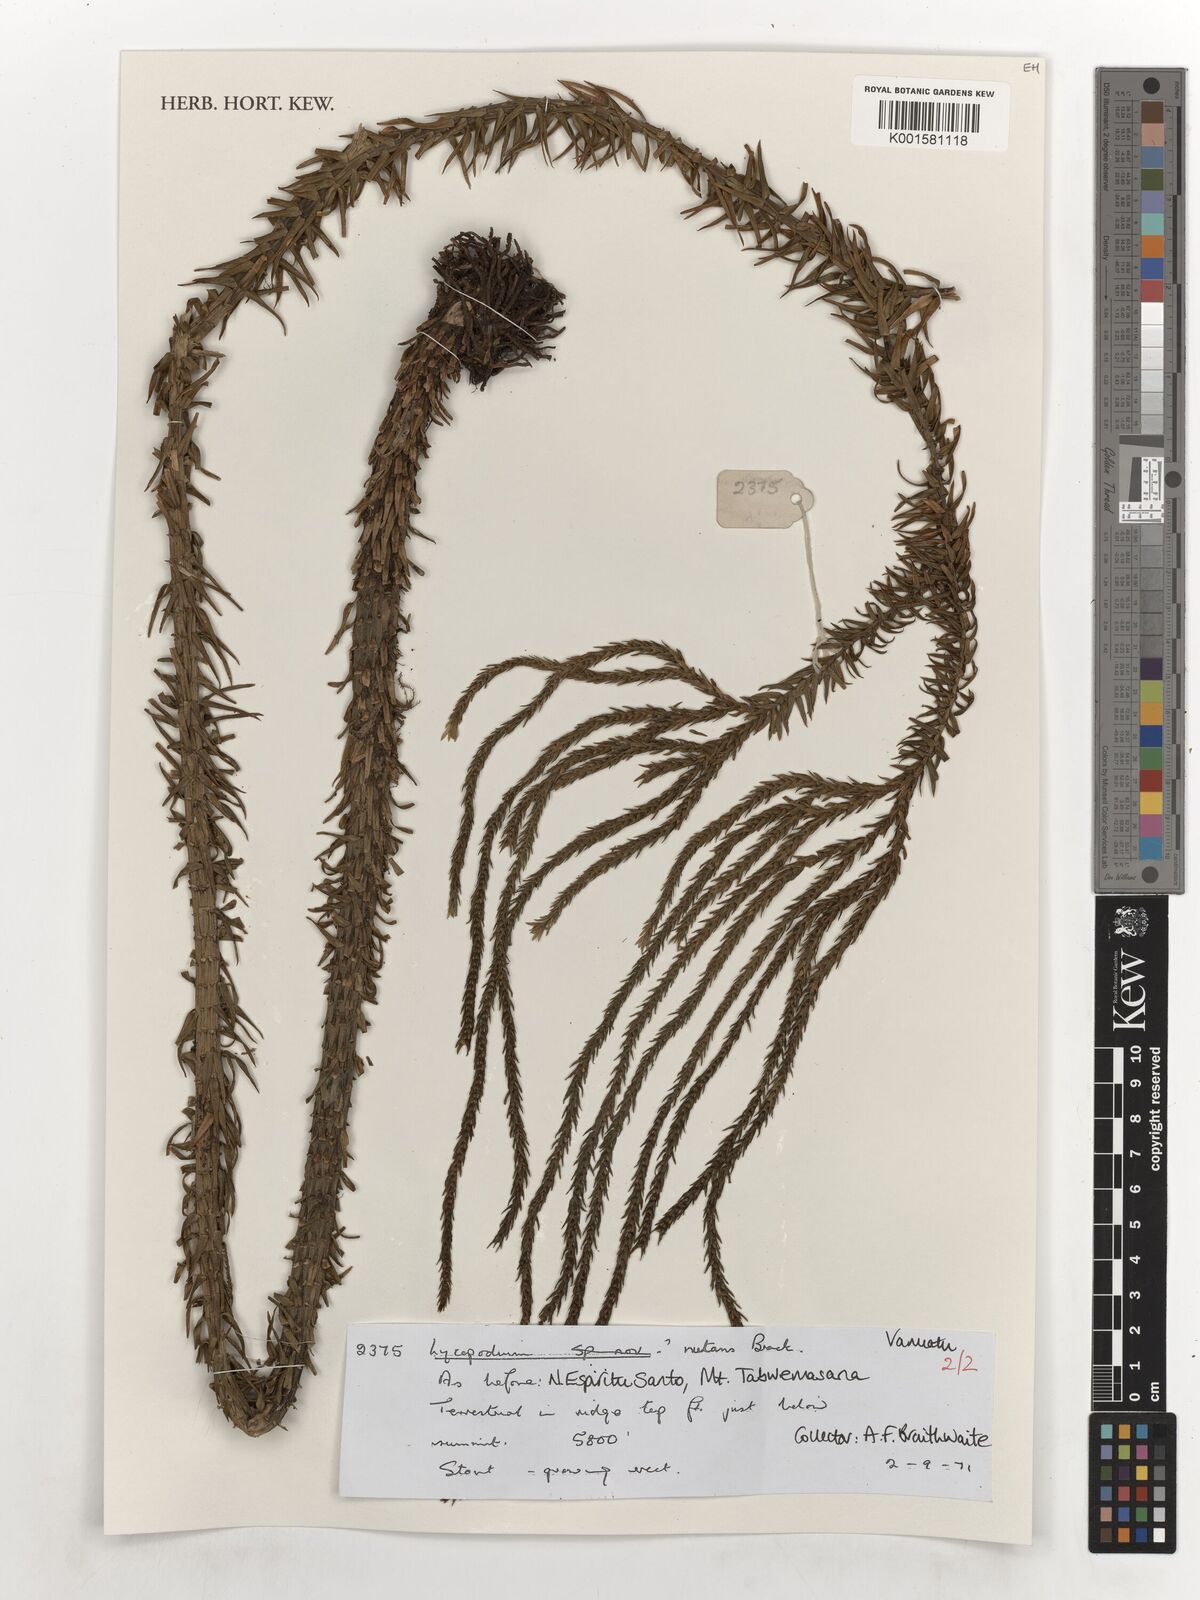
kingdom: Plantae
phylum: Tracheophyta
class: Lycopodiopsida
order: Lycopodiales
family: Lycopodiaceae
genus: Phlegmariurus
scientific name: Phlegmariurus nutans
